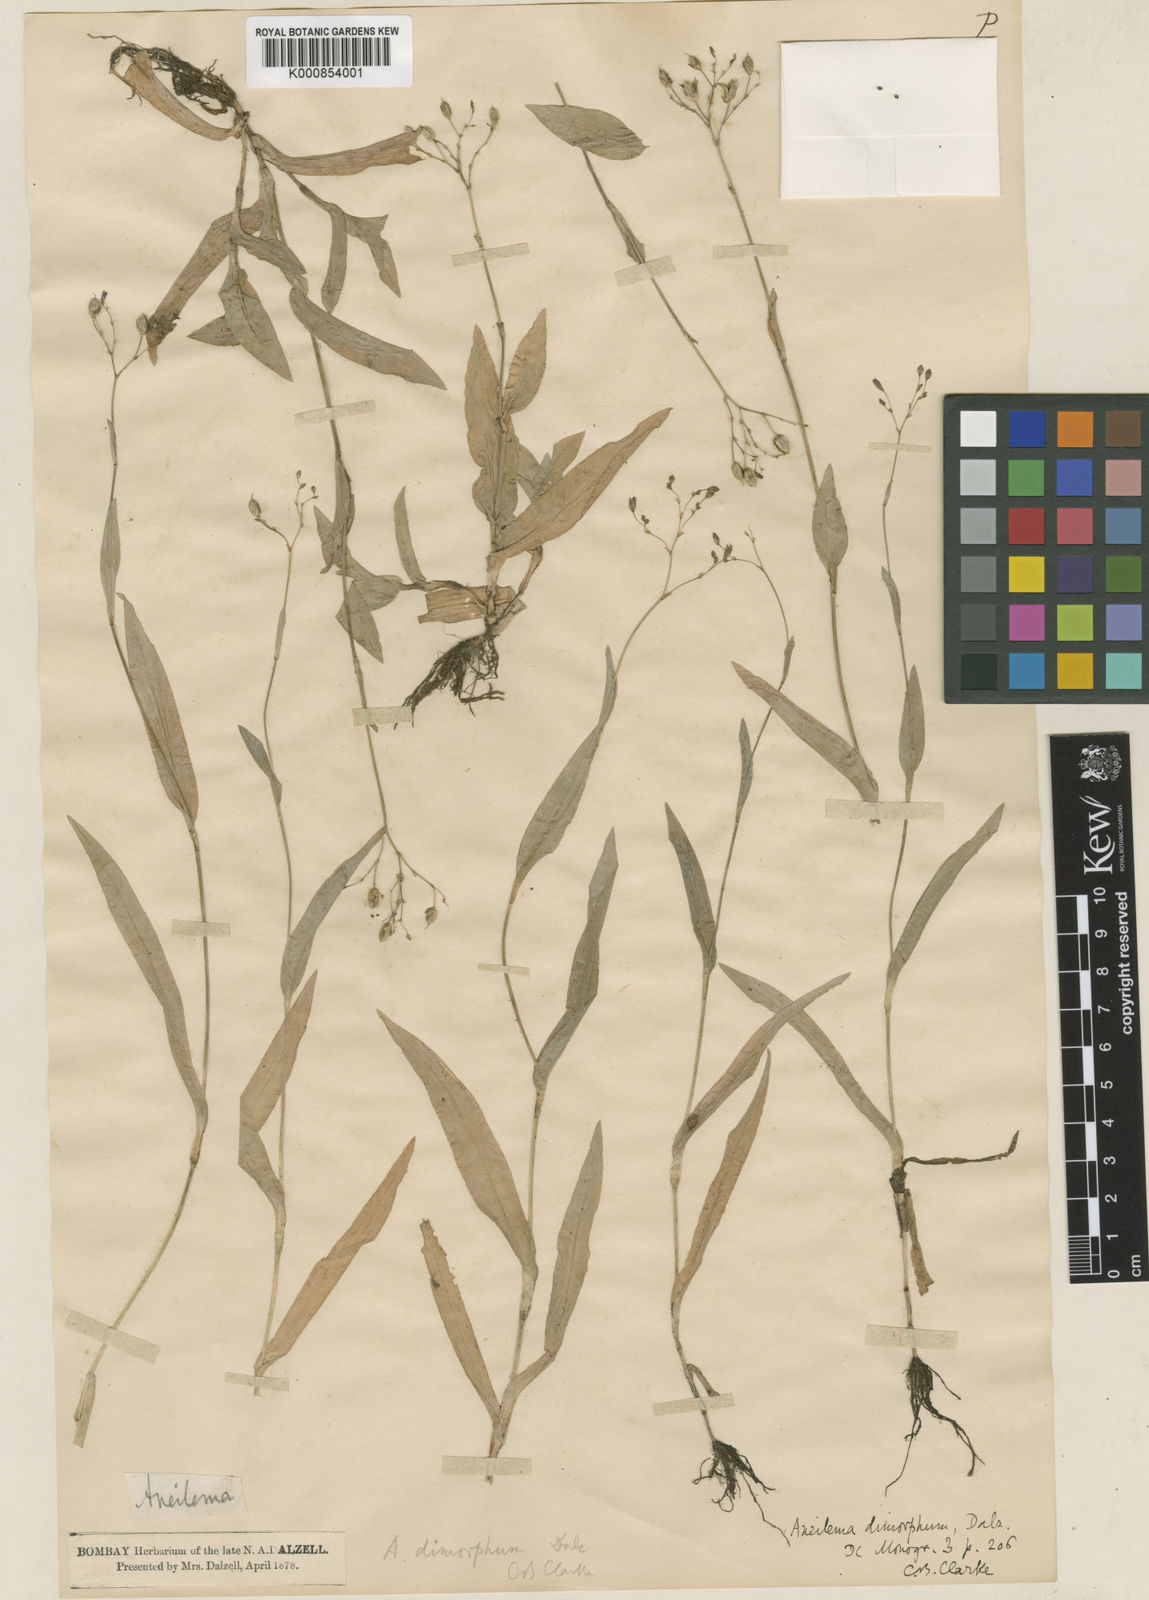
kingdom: Plantae
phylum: Tracheophyta
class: Liliopsida
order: Commelinales
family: Commelinaceae
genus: Murdannia
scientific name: Murdannia
